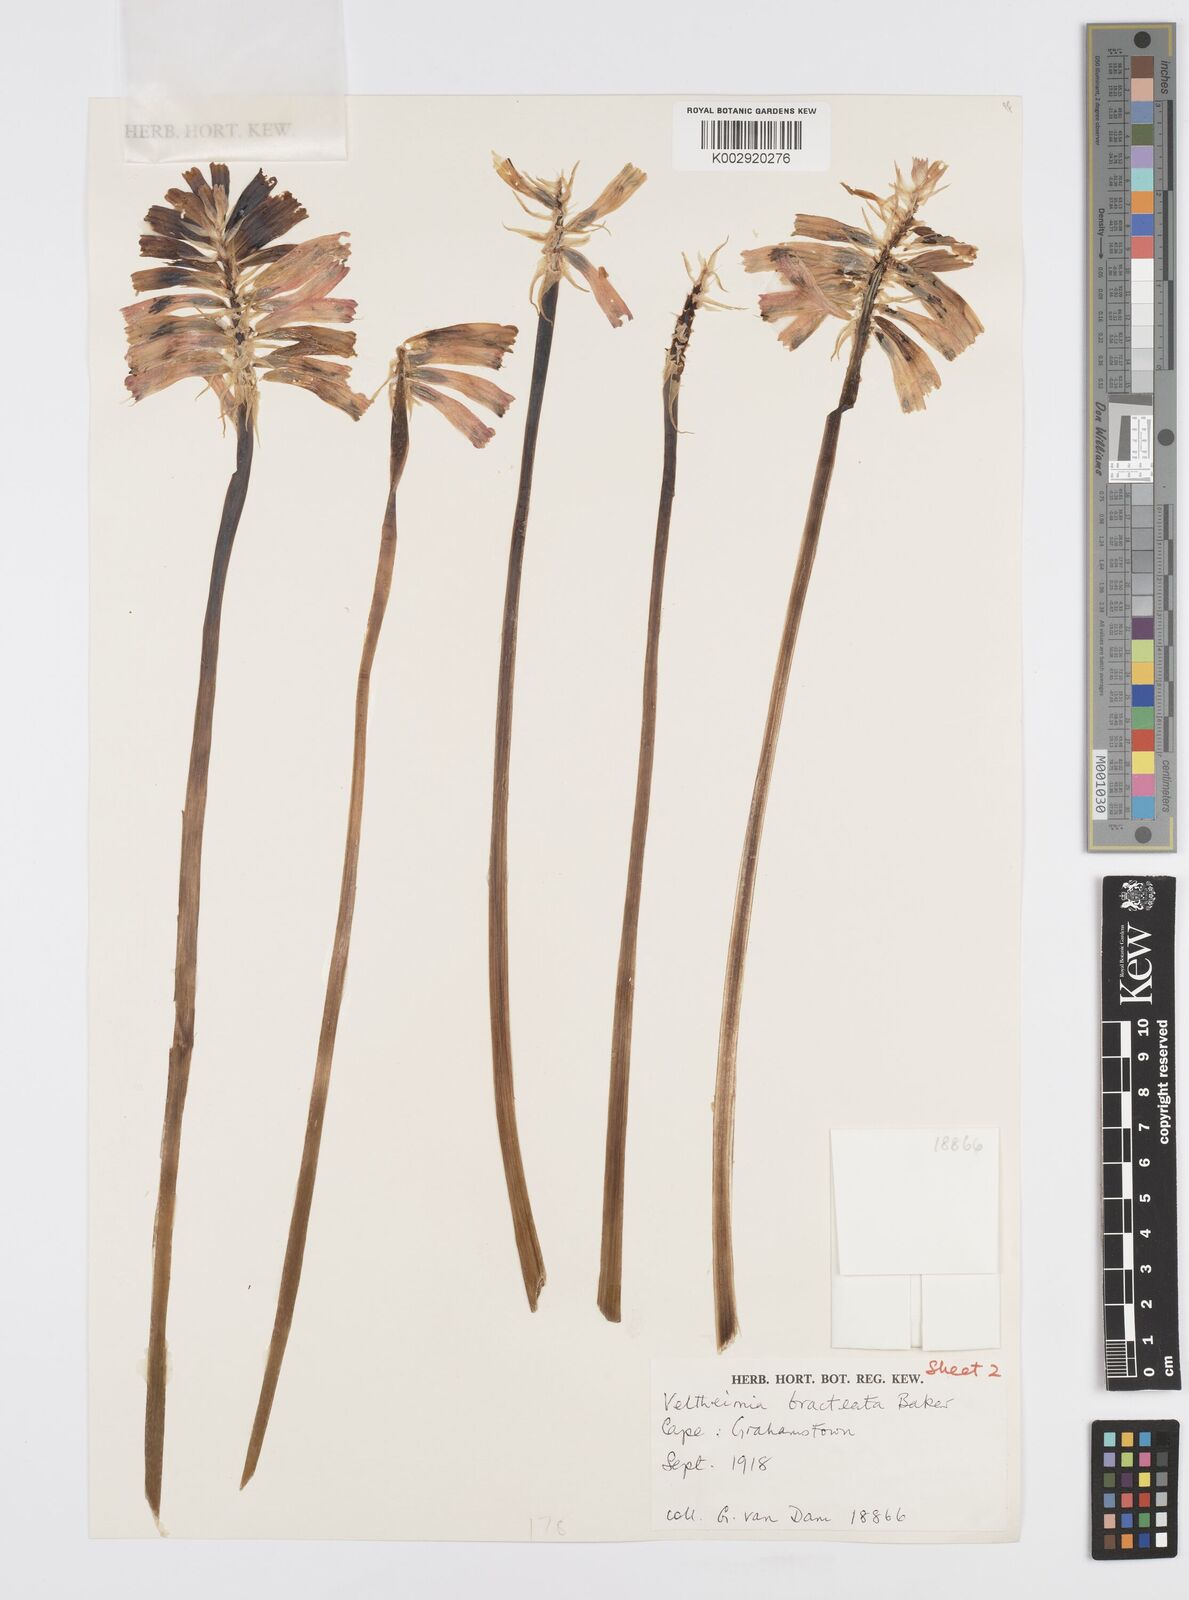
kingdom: Plantae
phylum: Tracheophyta
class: Liliopsida
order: Asparagales
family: Asparagaceae
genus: Veltheimia
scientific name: Veltheimia bracteata
